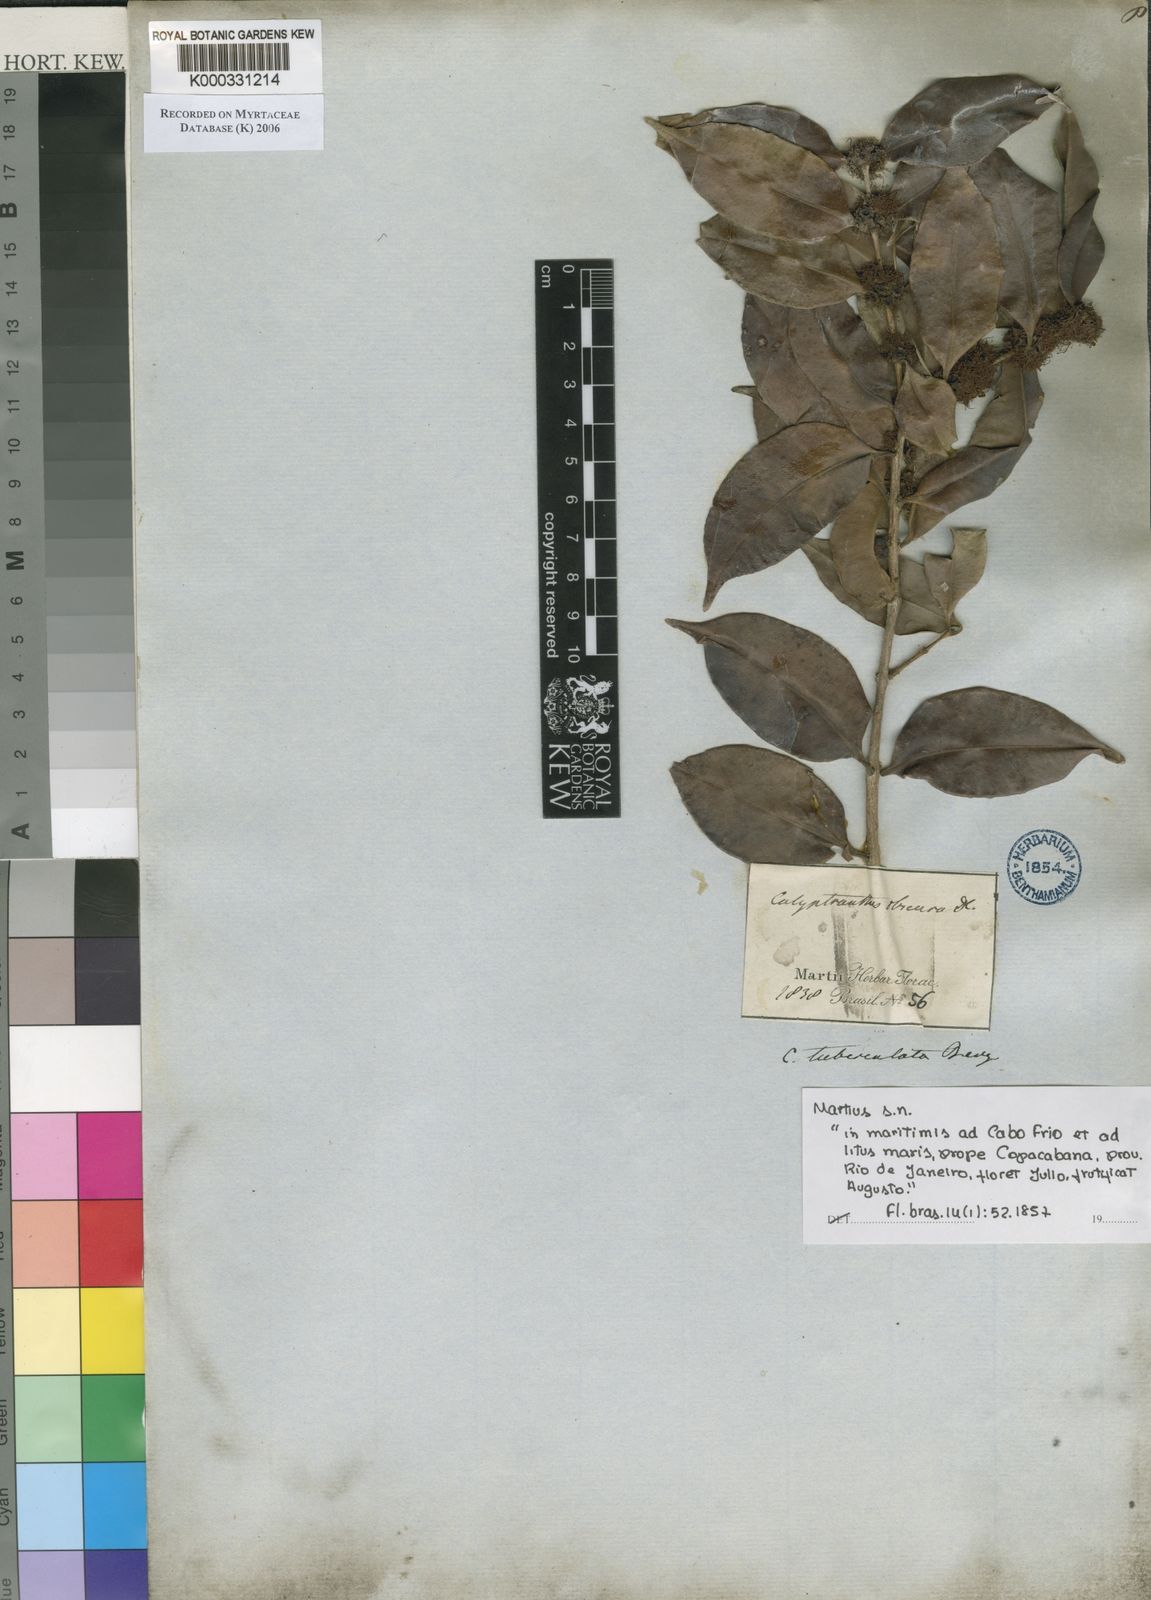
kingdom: Plantae
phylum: Tracheophyta
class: Magnoliopsida
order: Myrtales
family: Myrtaceae
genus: Neomitranthes
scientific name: Neomitranthes obscura
